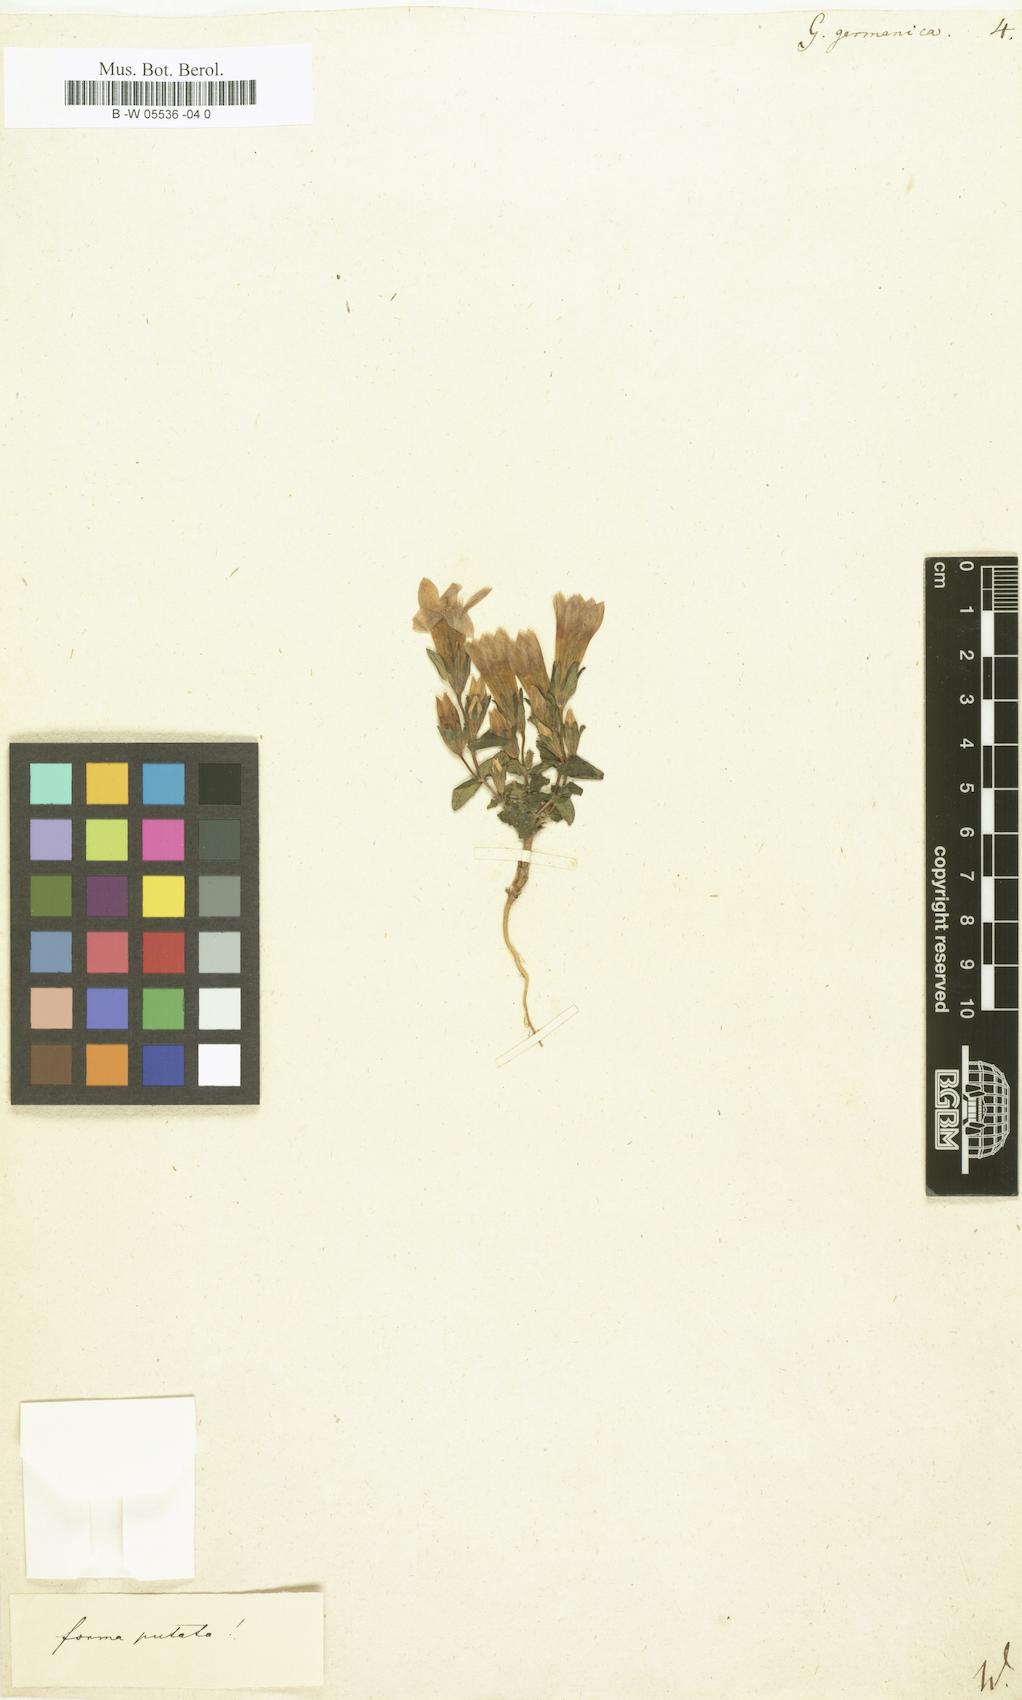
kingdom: Plantae
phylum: Tracheophyta
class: Magnoliopsida
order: Gentianales
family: Gentianaceae
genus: Gentianella
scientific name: Gentianella
